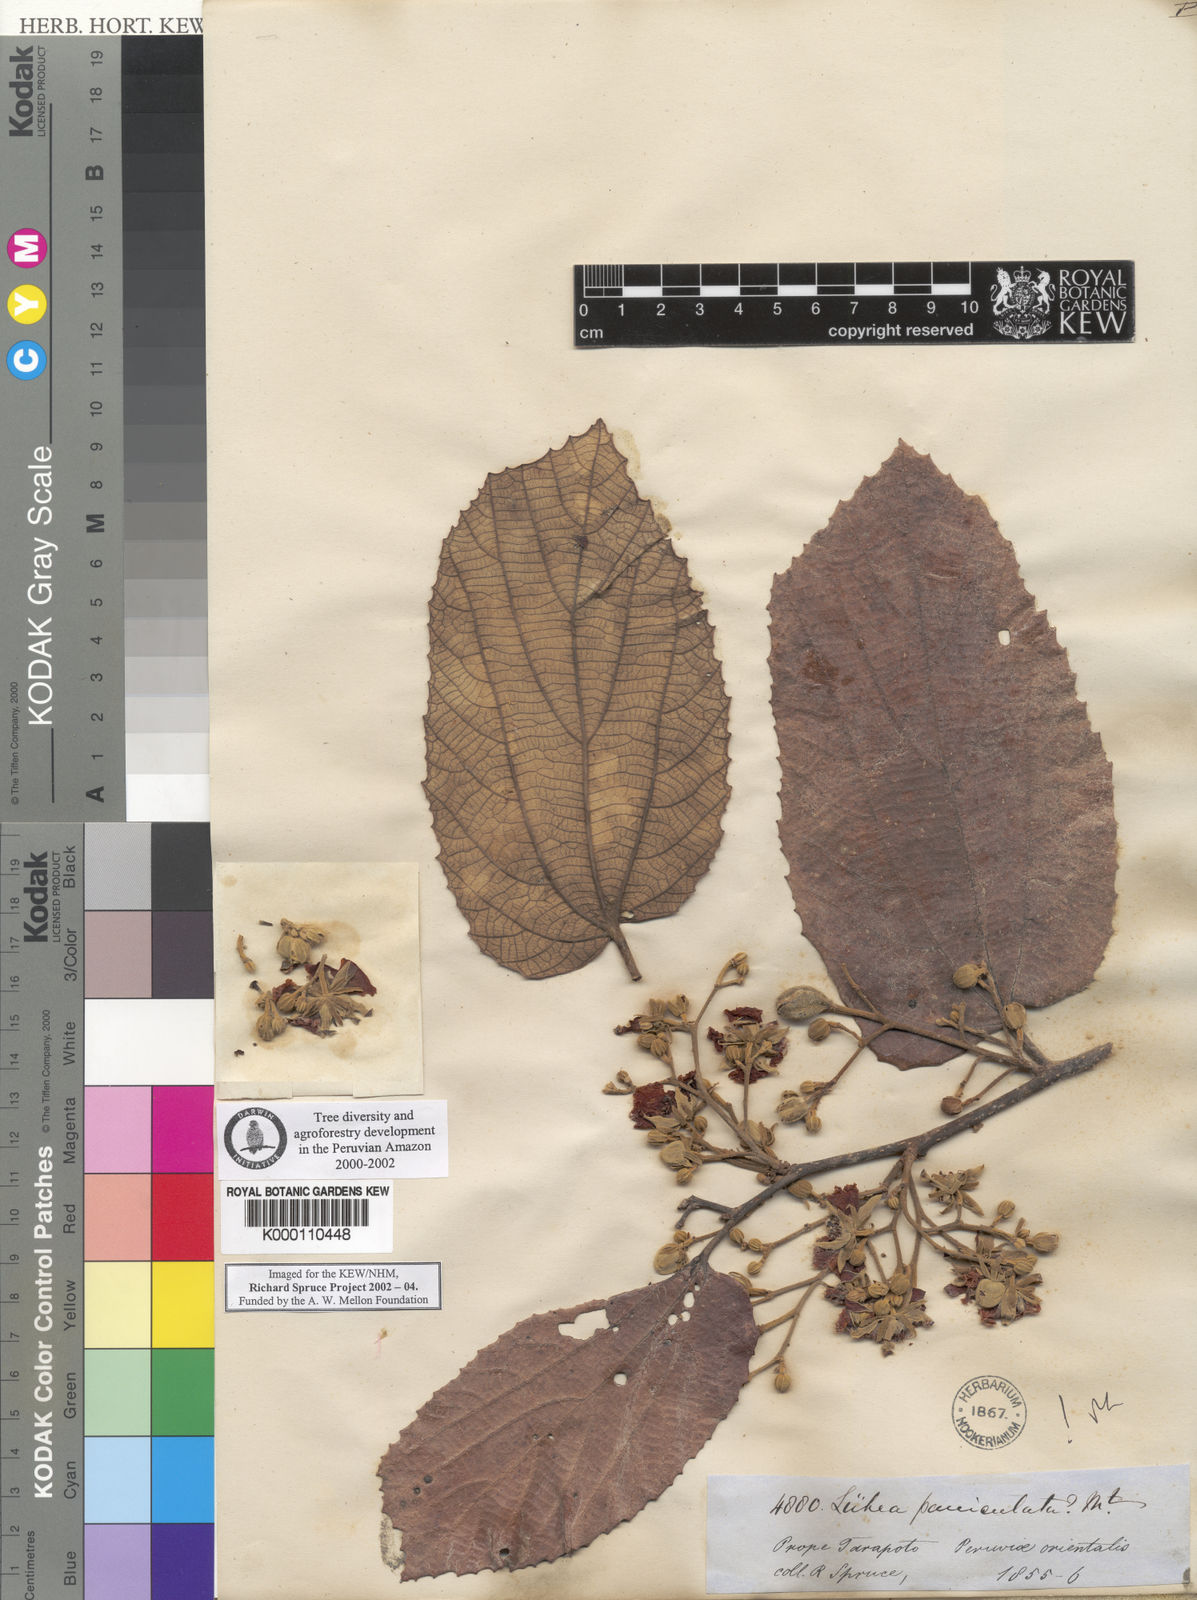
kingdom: Plantae
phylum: Tracheophyta
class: Magnoliopsida
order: Malvales
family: Malvaceae
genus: Luehea
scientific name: Luehea paniculata
